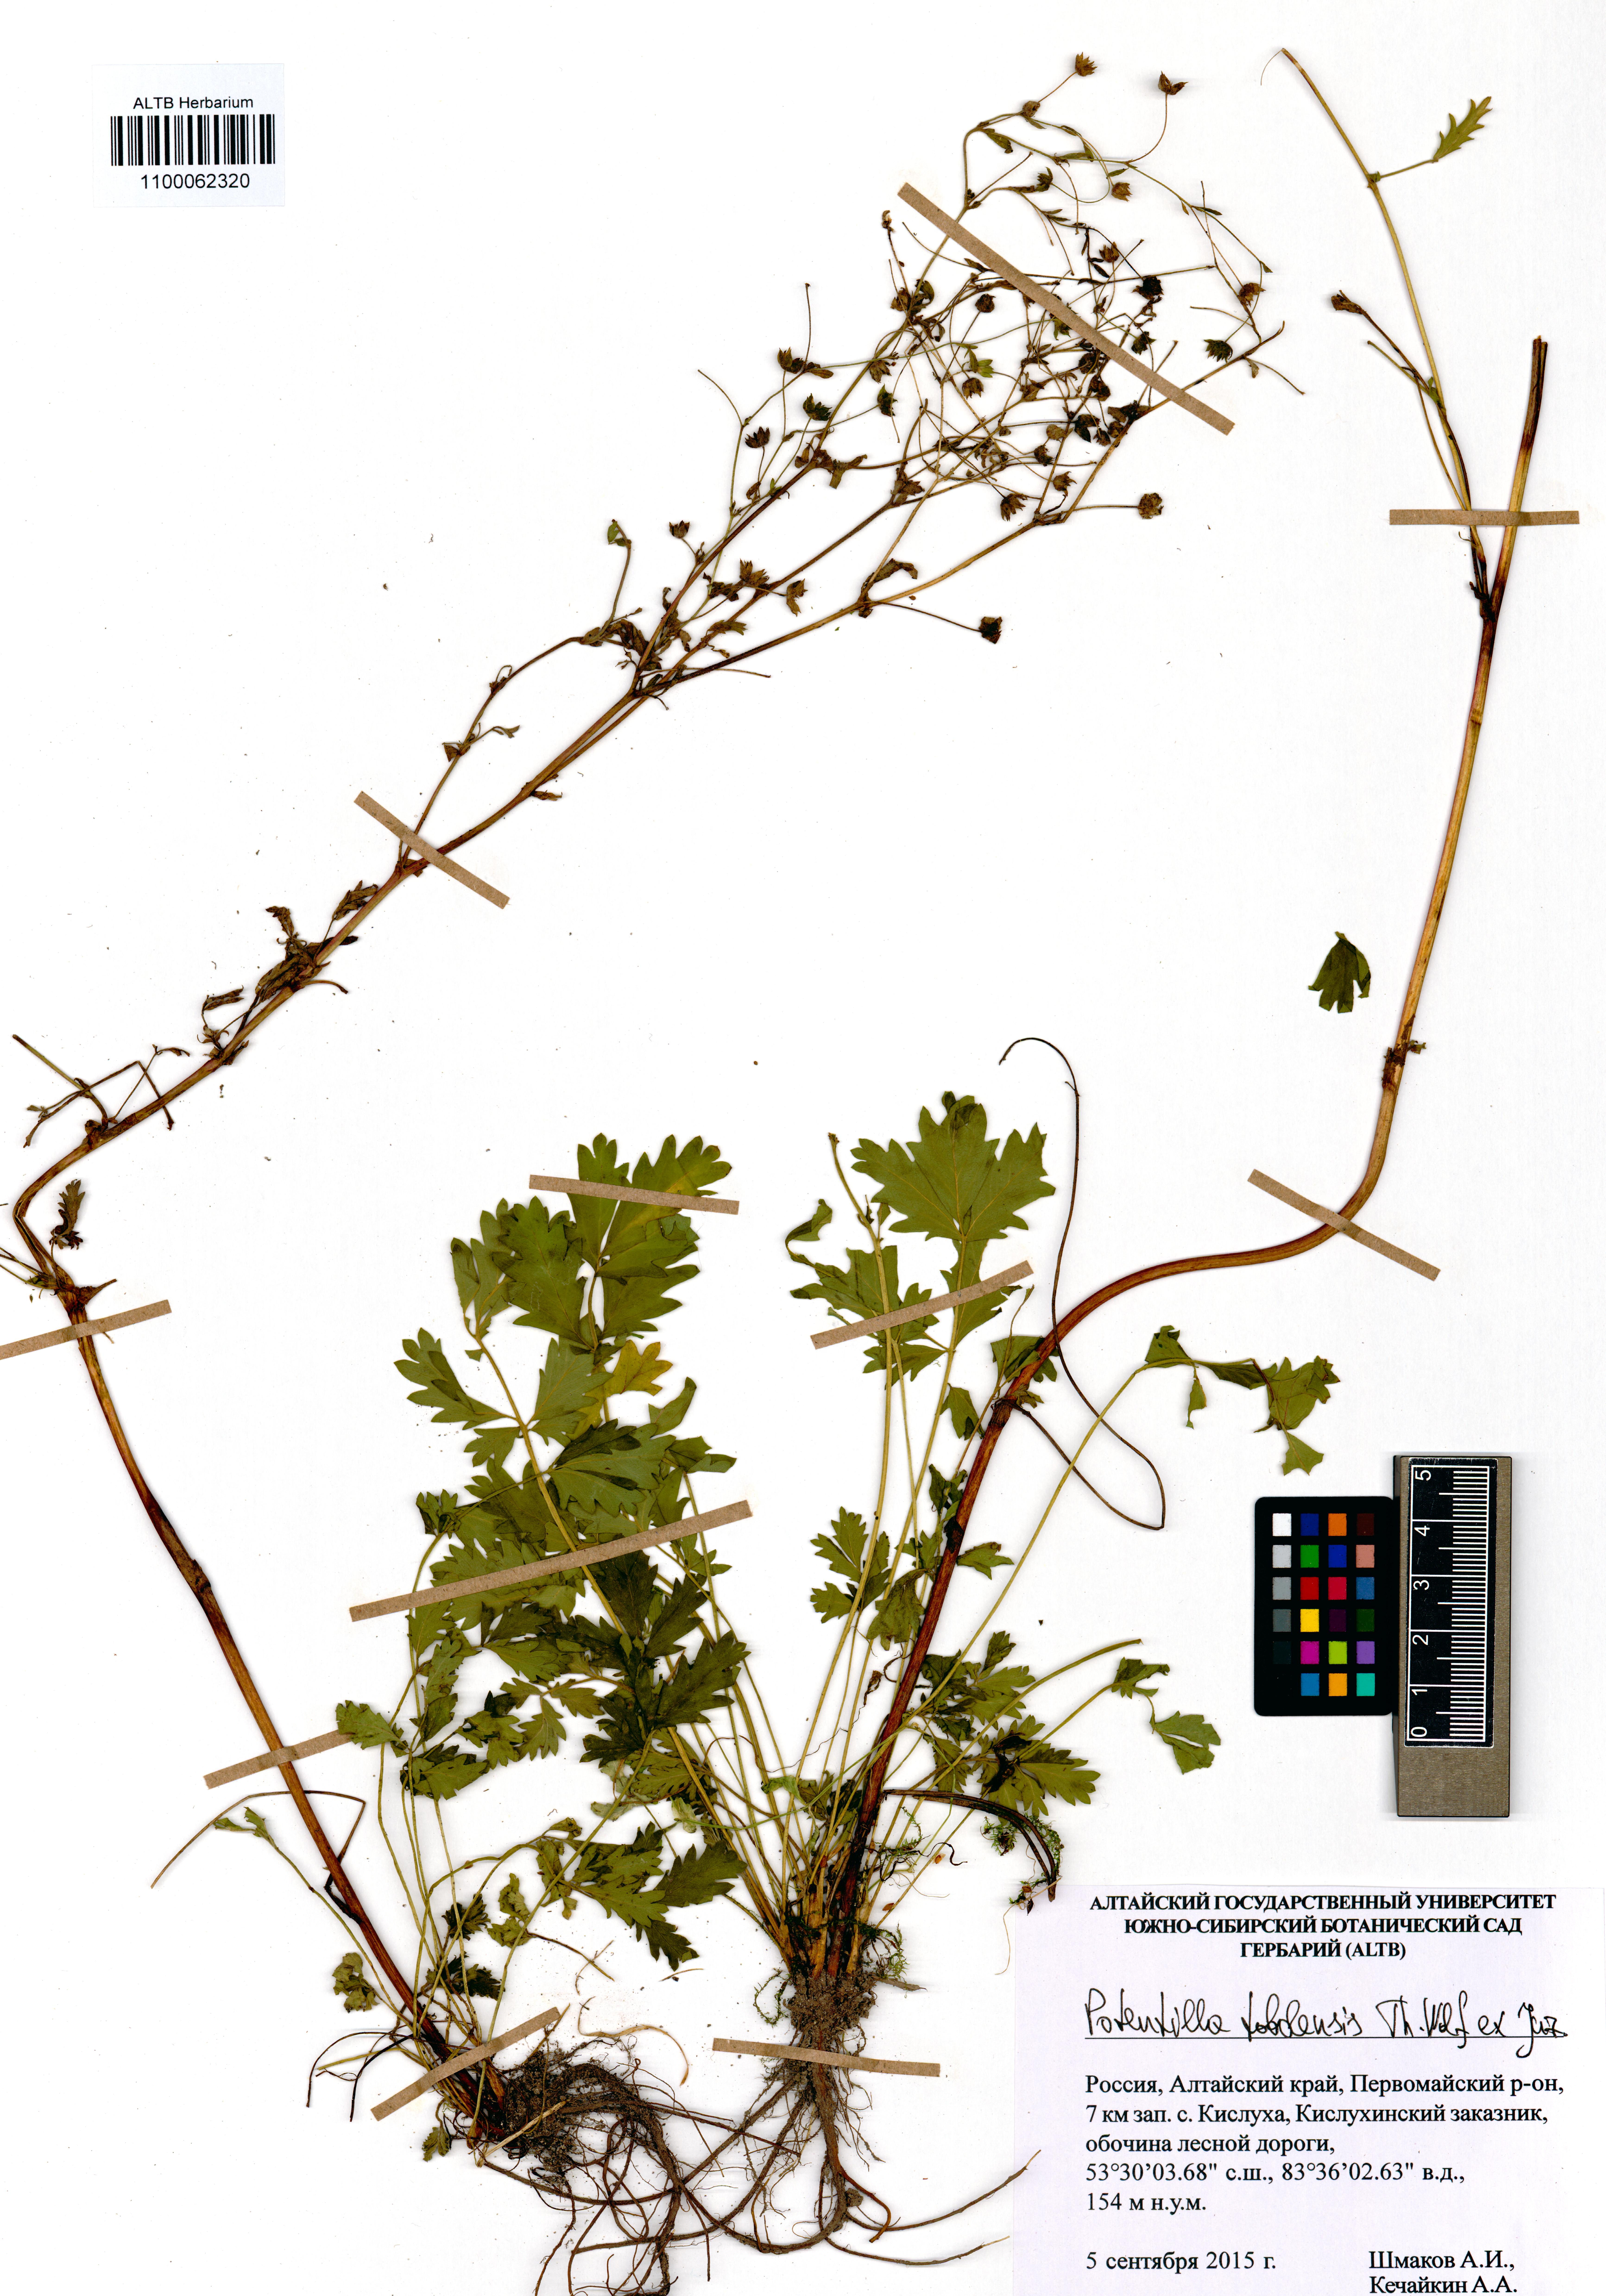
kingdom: Plantae
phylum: Tracheophyta
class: Magnoliopsida
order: Rosales
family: Rosaceae
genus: Potentilla
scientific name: Potentilla tobolensis
